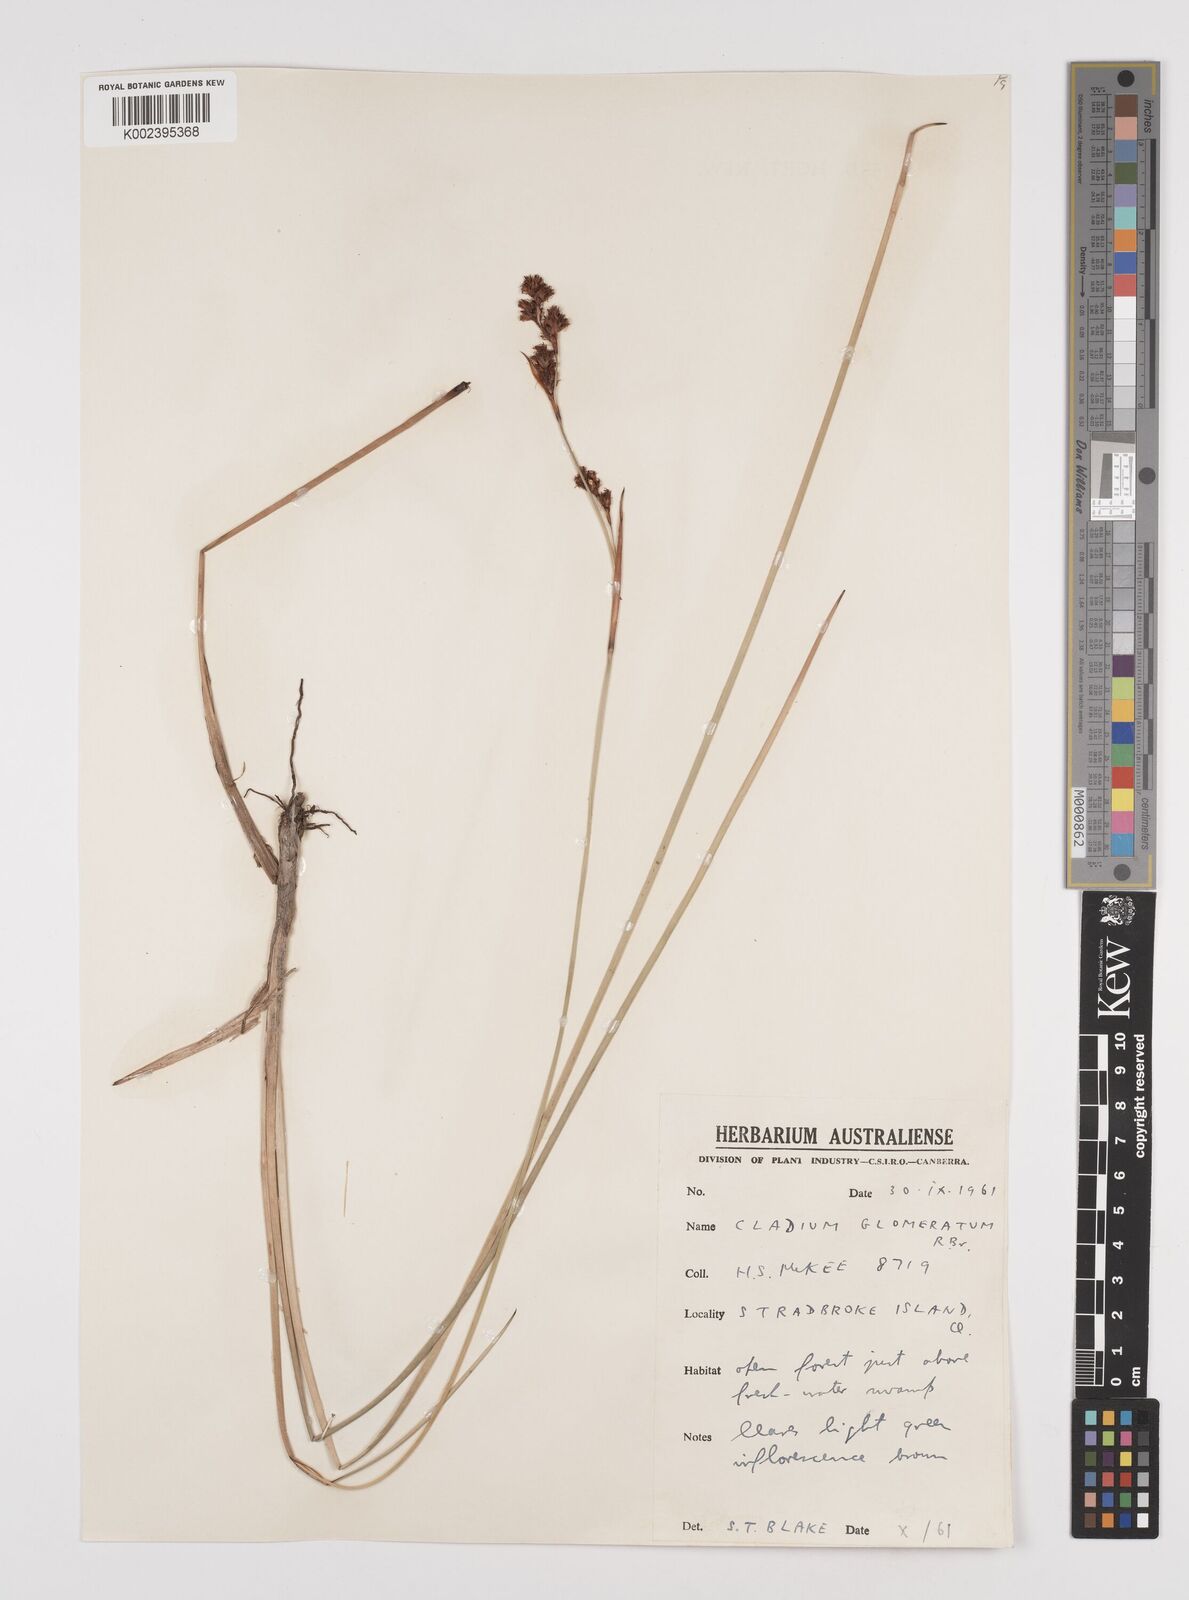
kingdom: Plantae
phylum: Tracheophyta
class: Liliopsida
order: Poales
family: Cyperaceae
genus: Machaerina
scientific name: Machaerina rubiginosa
